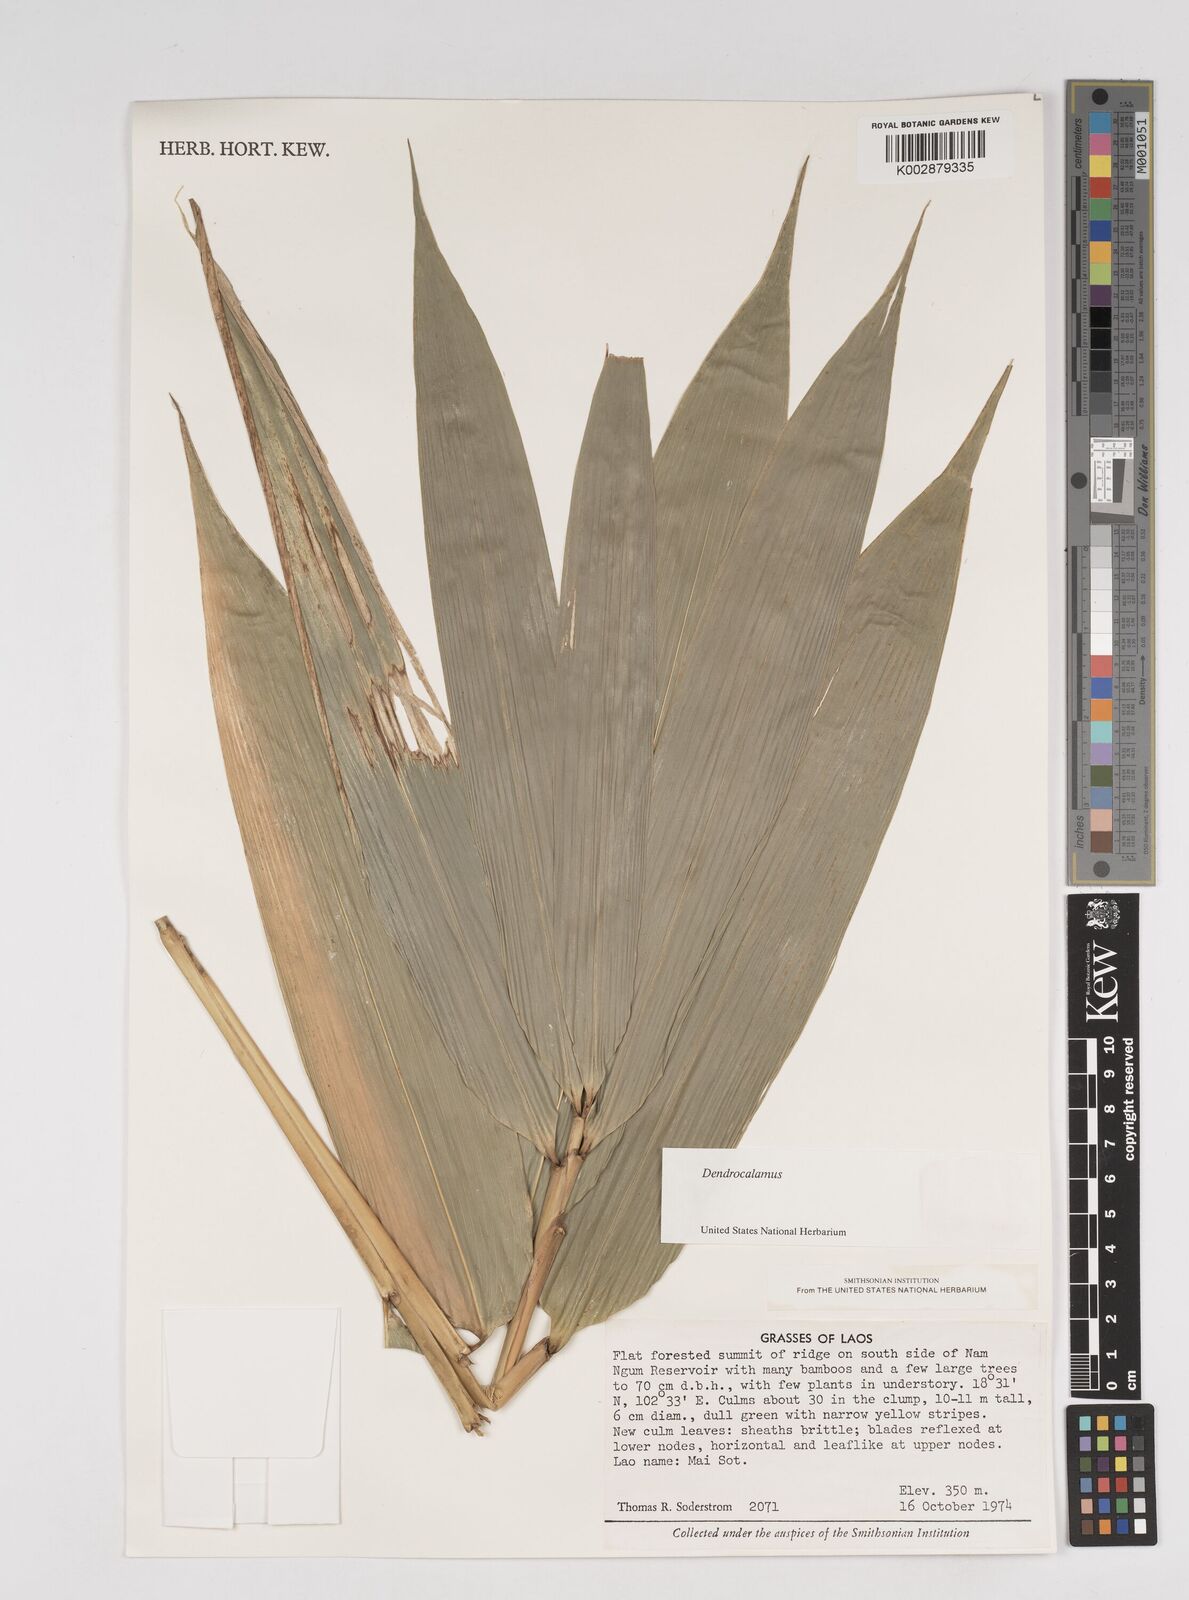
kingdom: Plantae
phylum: Tracheophyta
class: Liliopsida
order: Poales
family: Poaceae
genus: Dendrocalamus
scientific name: Dendrocalamus
